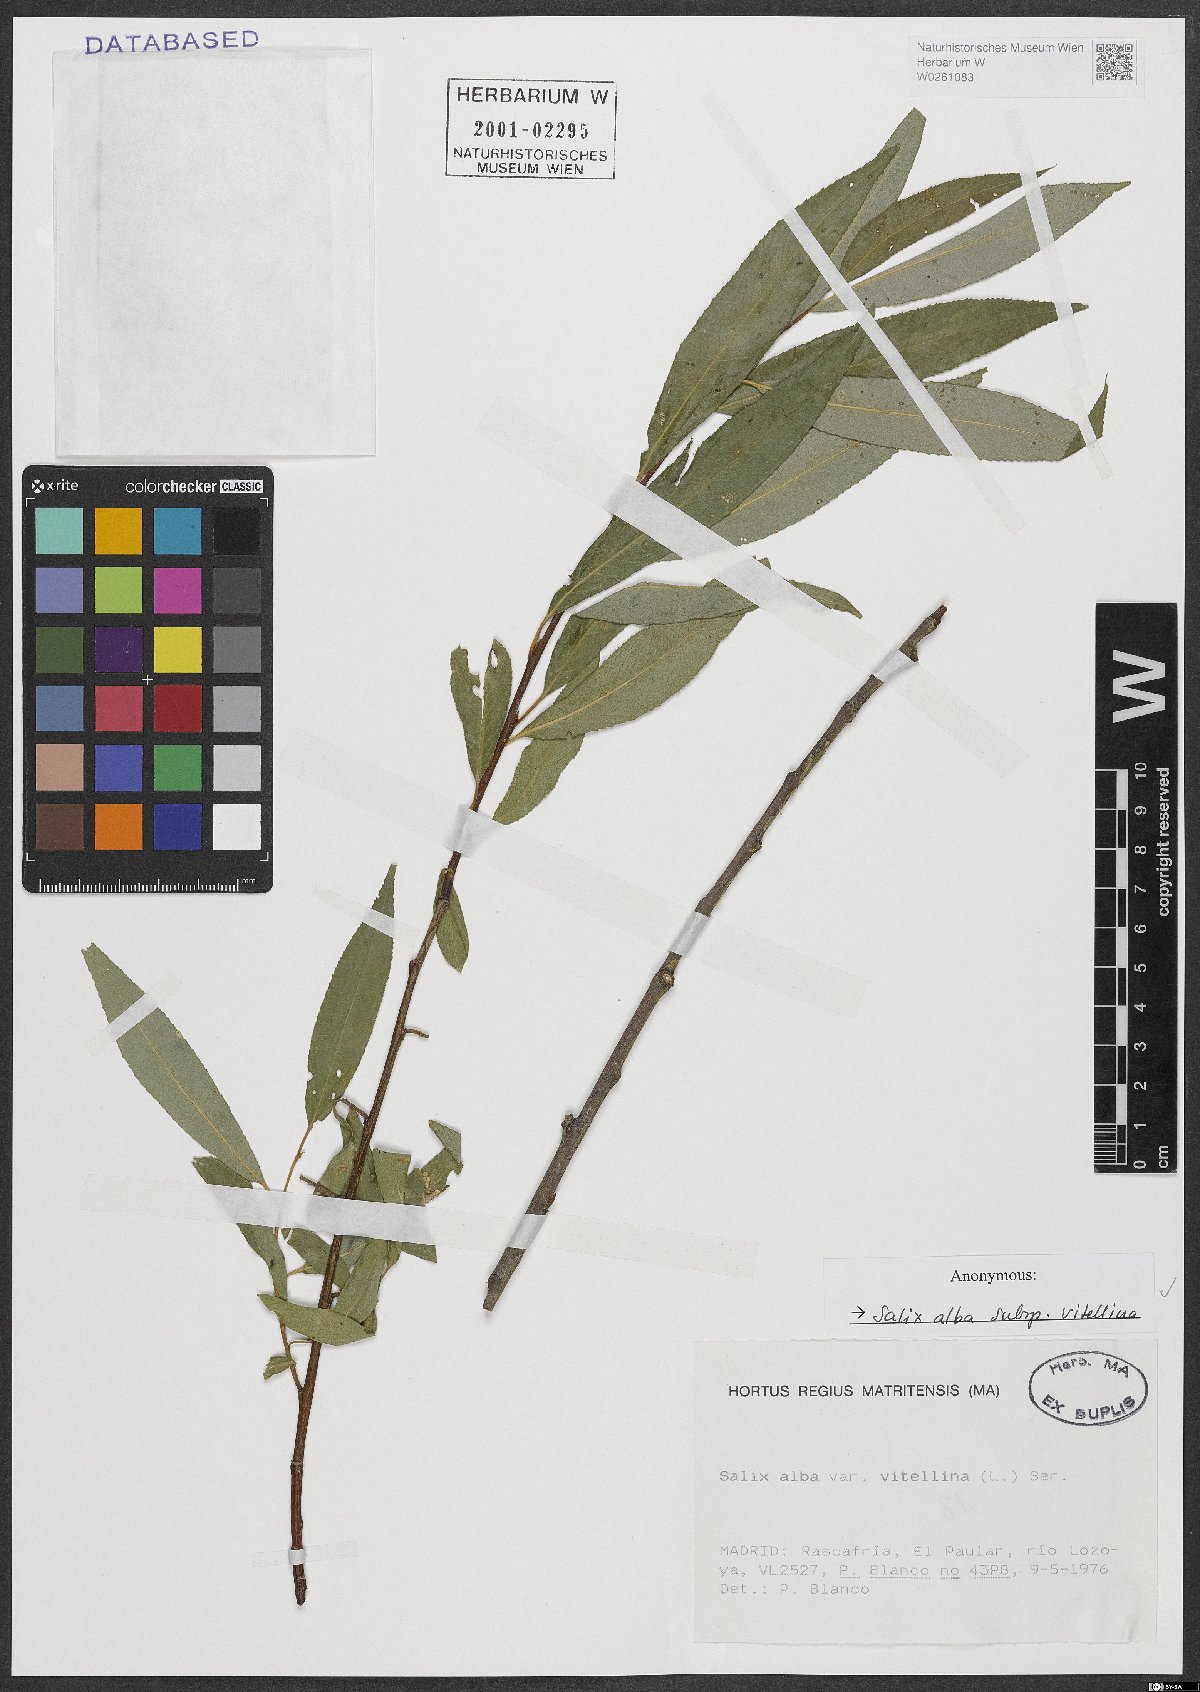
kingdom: Plantae
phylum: Tracheophyta
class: Magnoliopsida
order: Malpighiales
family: Salicaceae
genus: Salix
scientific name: Salix alba
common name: White willow
